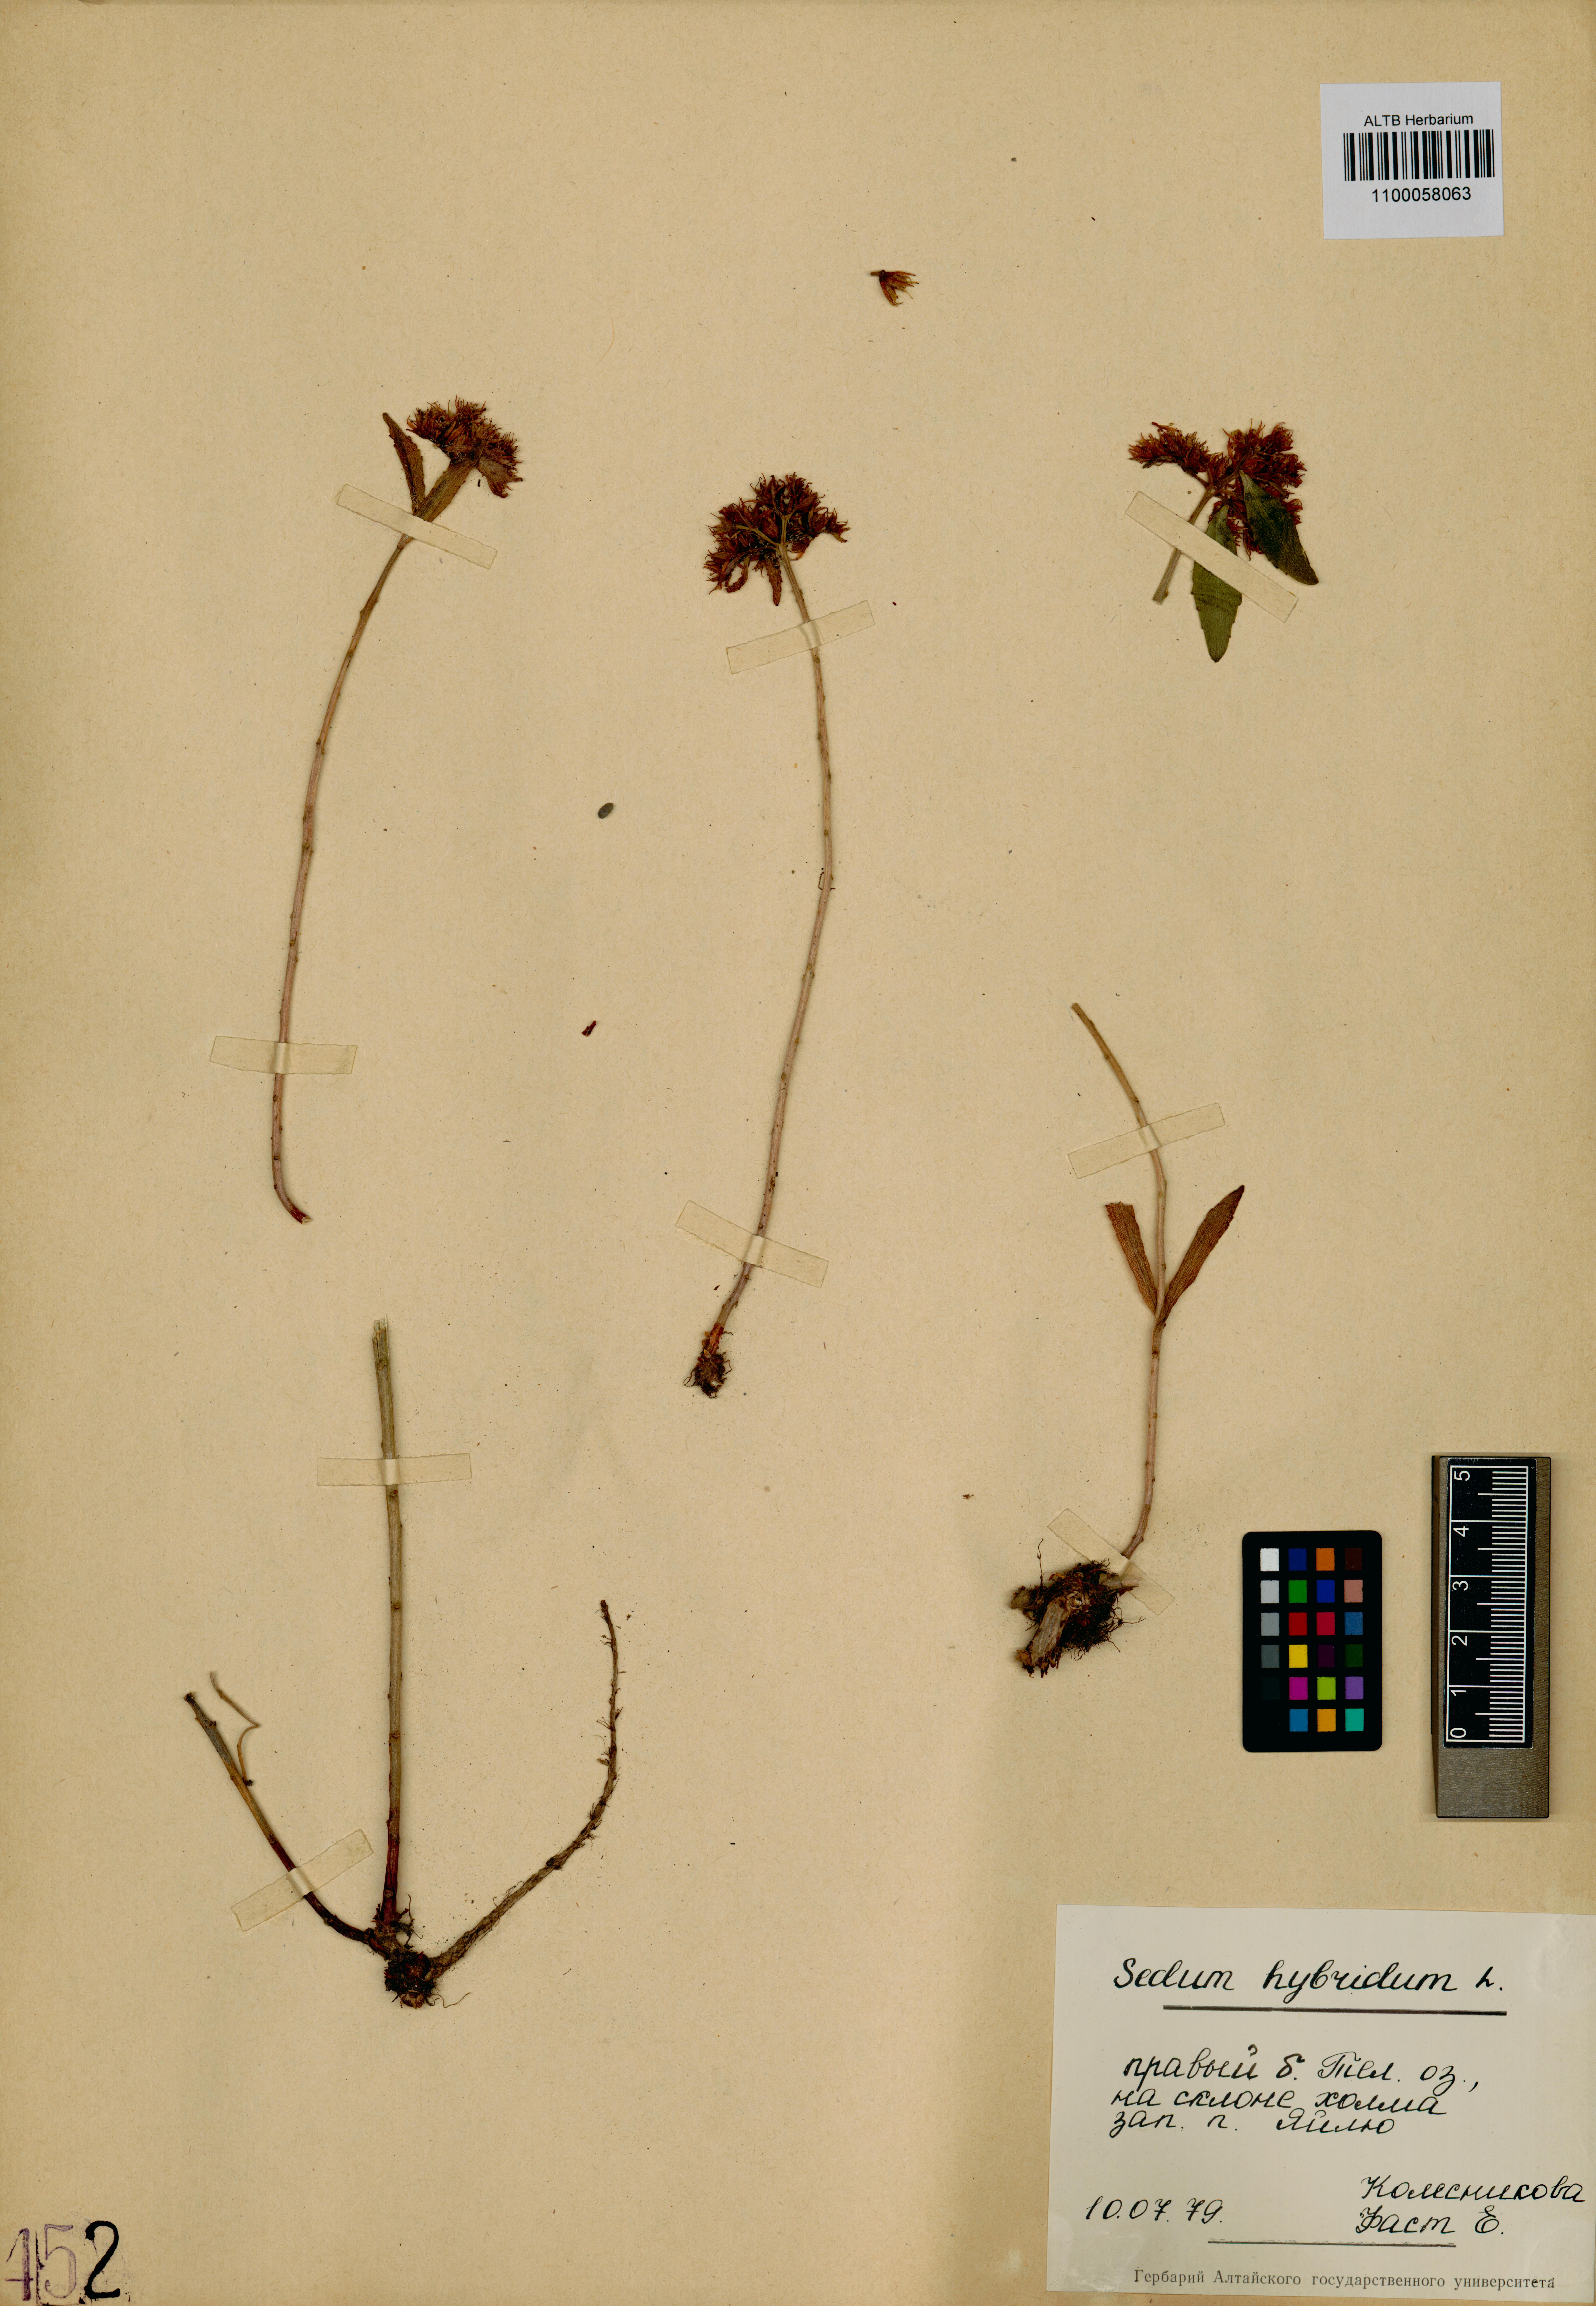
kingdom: Plantae
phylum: Tracheophyta
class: Magnoliopsida
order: Saxifragales
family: Crassulaceae
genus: Phedimus
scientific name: Phedimus hybridus
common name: Hybrid stonecrop
